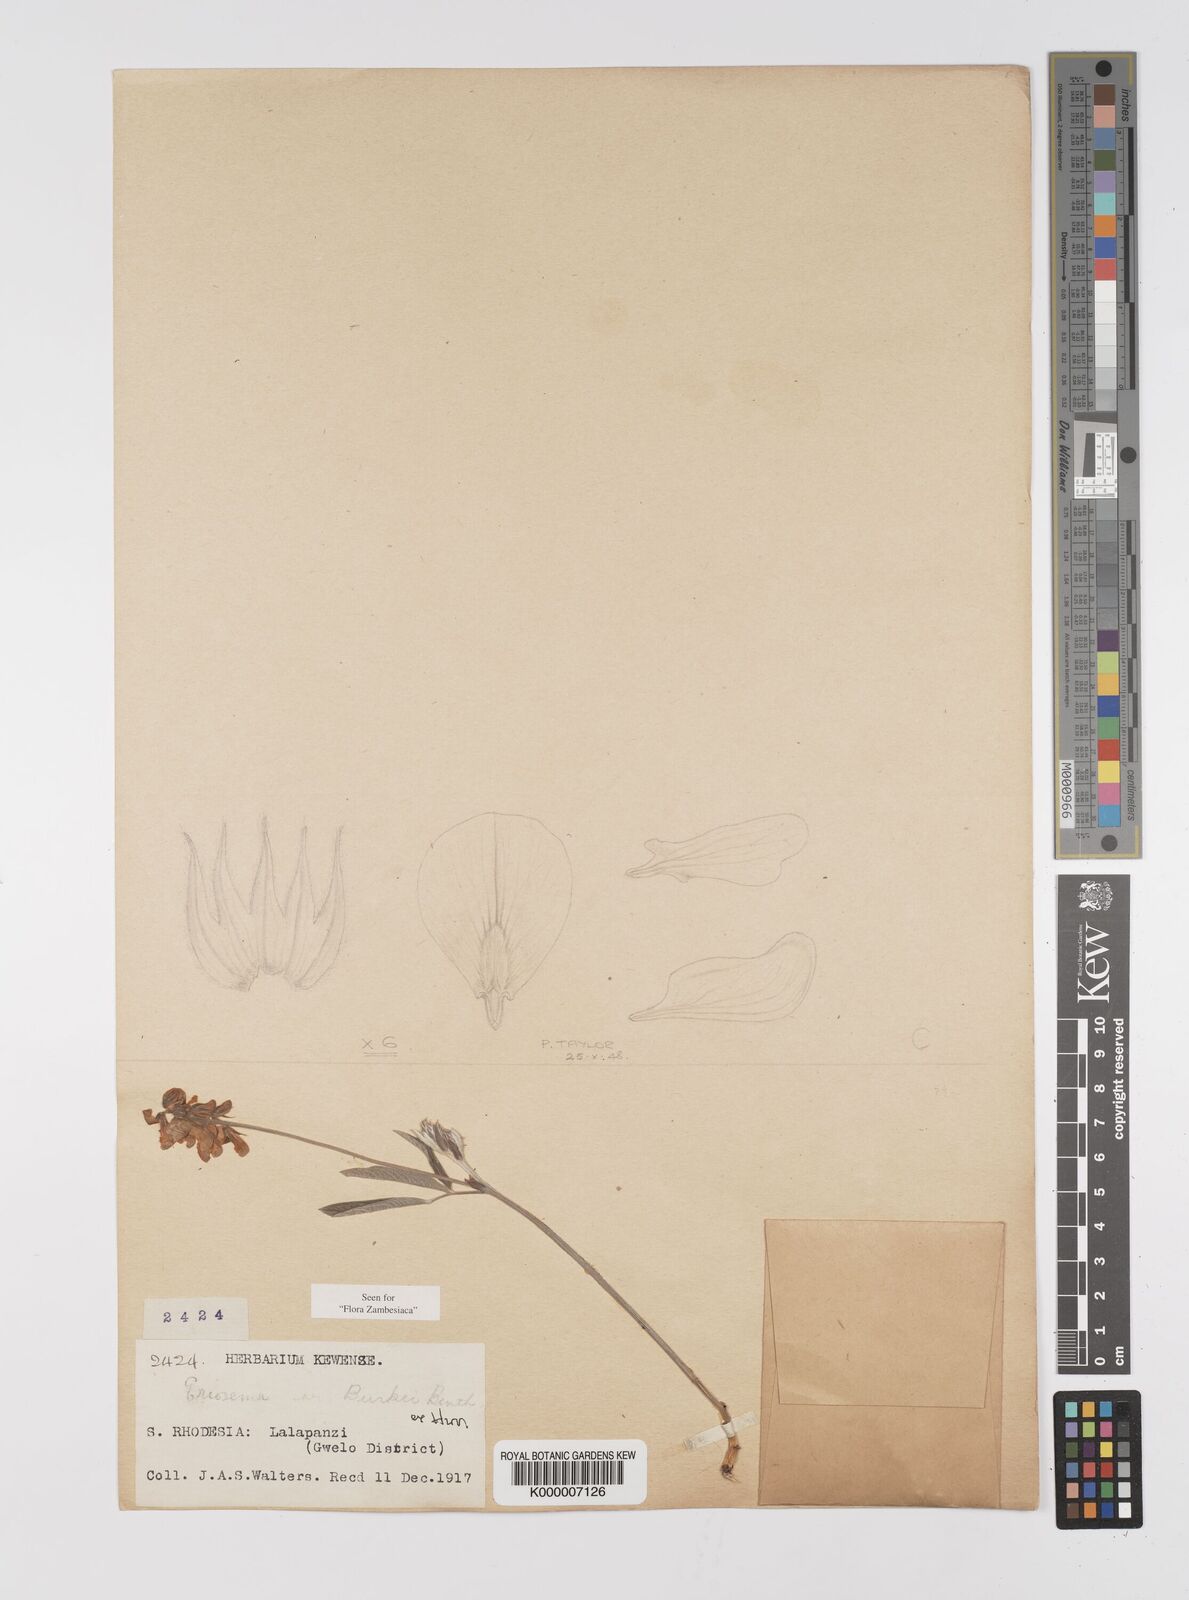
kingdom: Plantae
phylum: Tracheophyta
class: Magnoliopsida
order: Fabales
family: Fabaceae
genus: Eriosema
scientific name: Eriosema burkei
